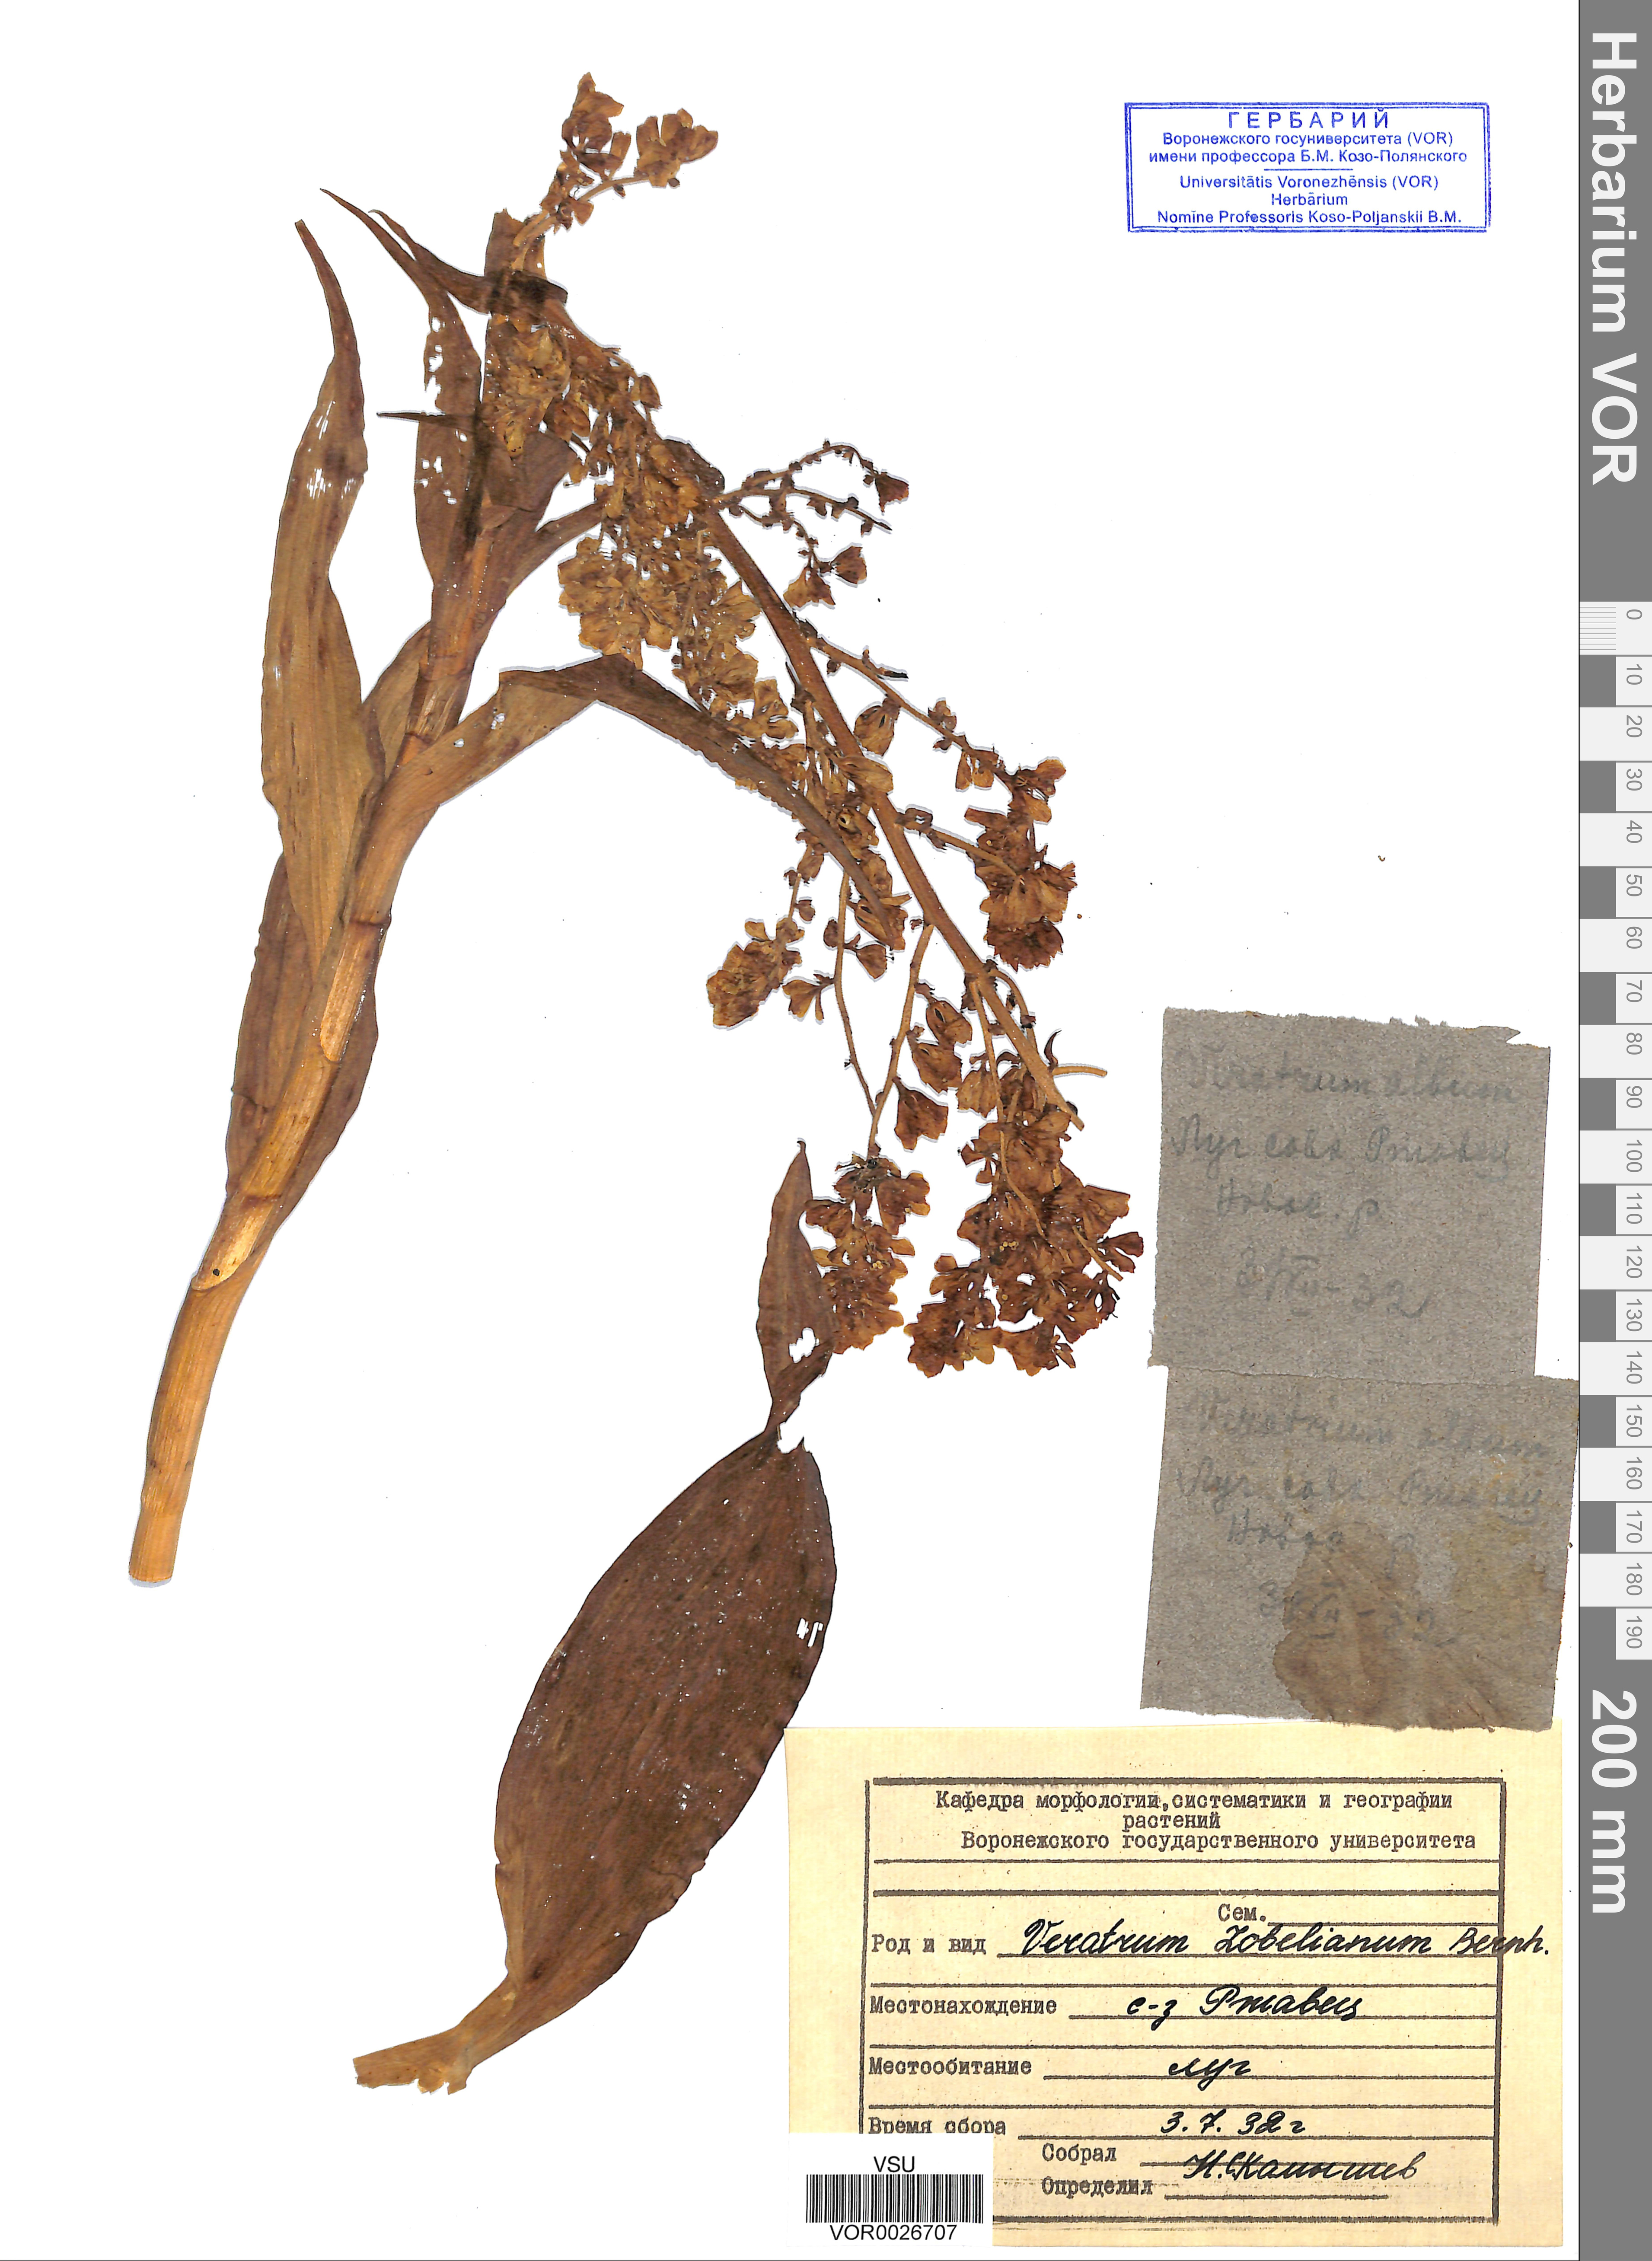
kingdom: Plantae
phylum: Tracheophyta
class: Liliopsida
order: Liliales
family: Melanthiaceae
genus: Veratrum
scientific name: Veratrum lobelianum
